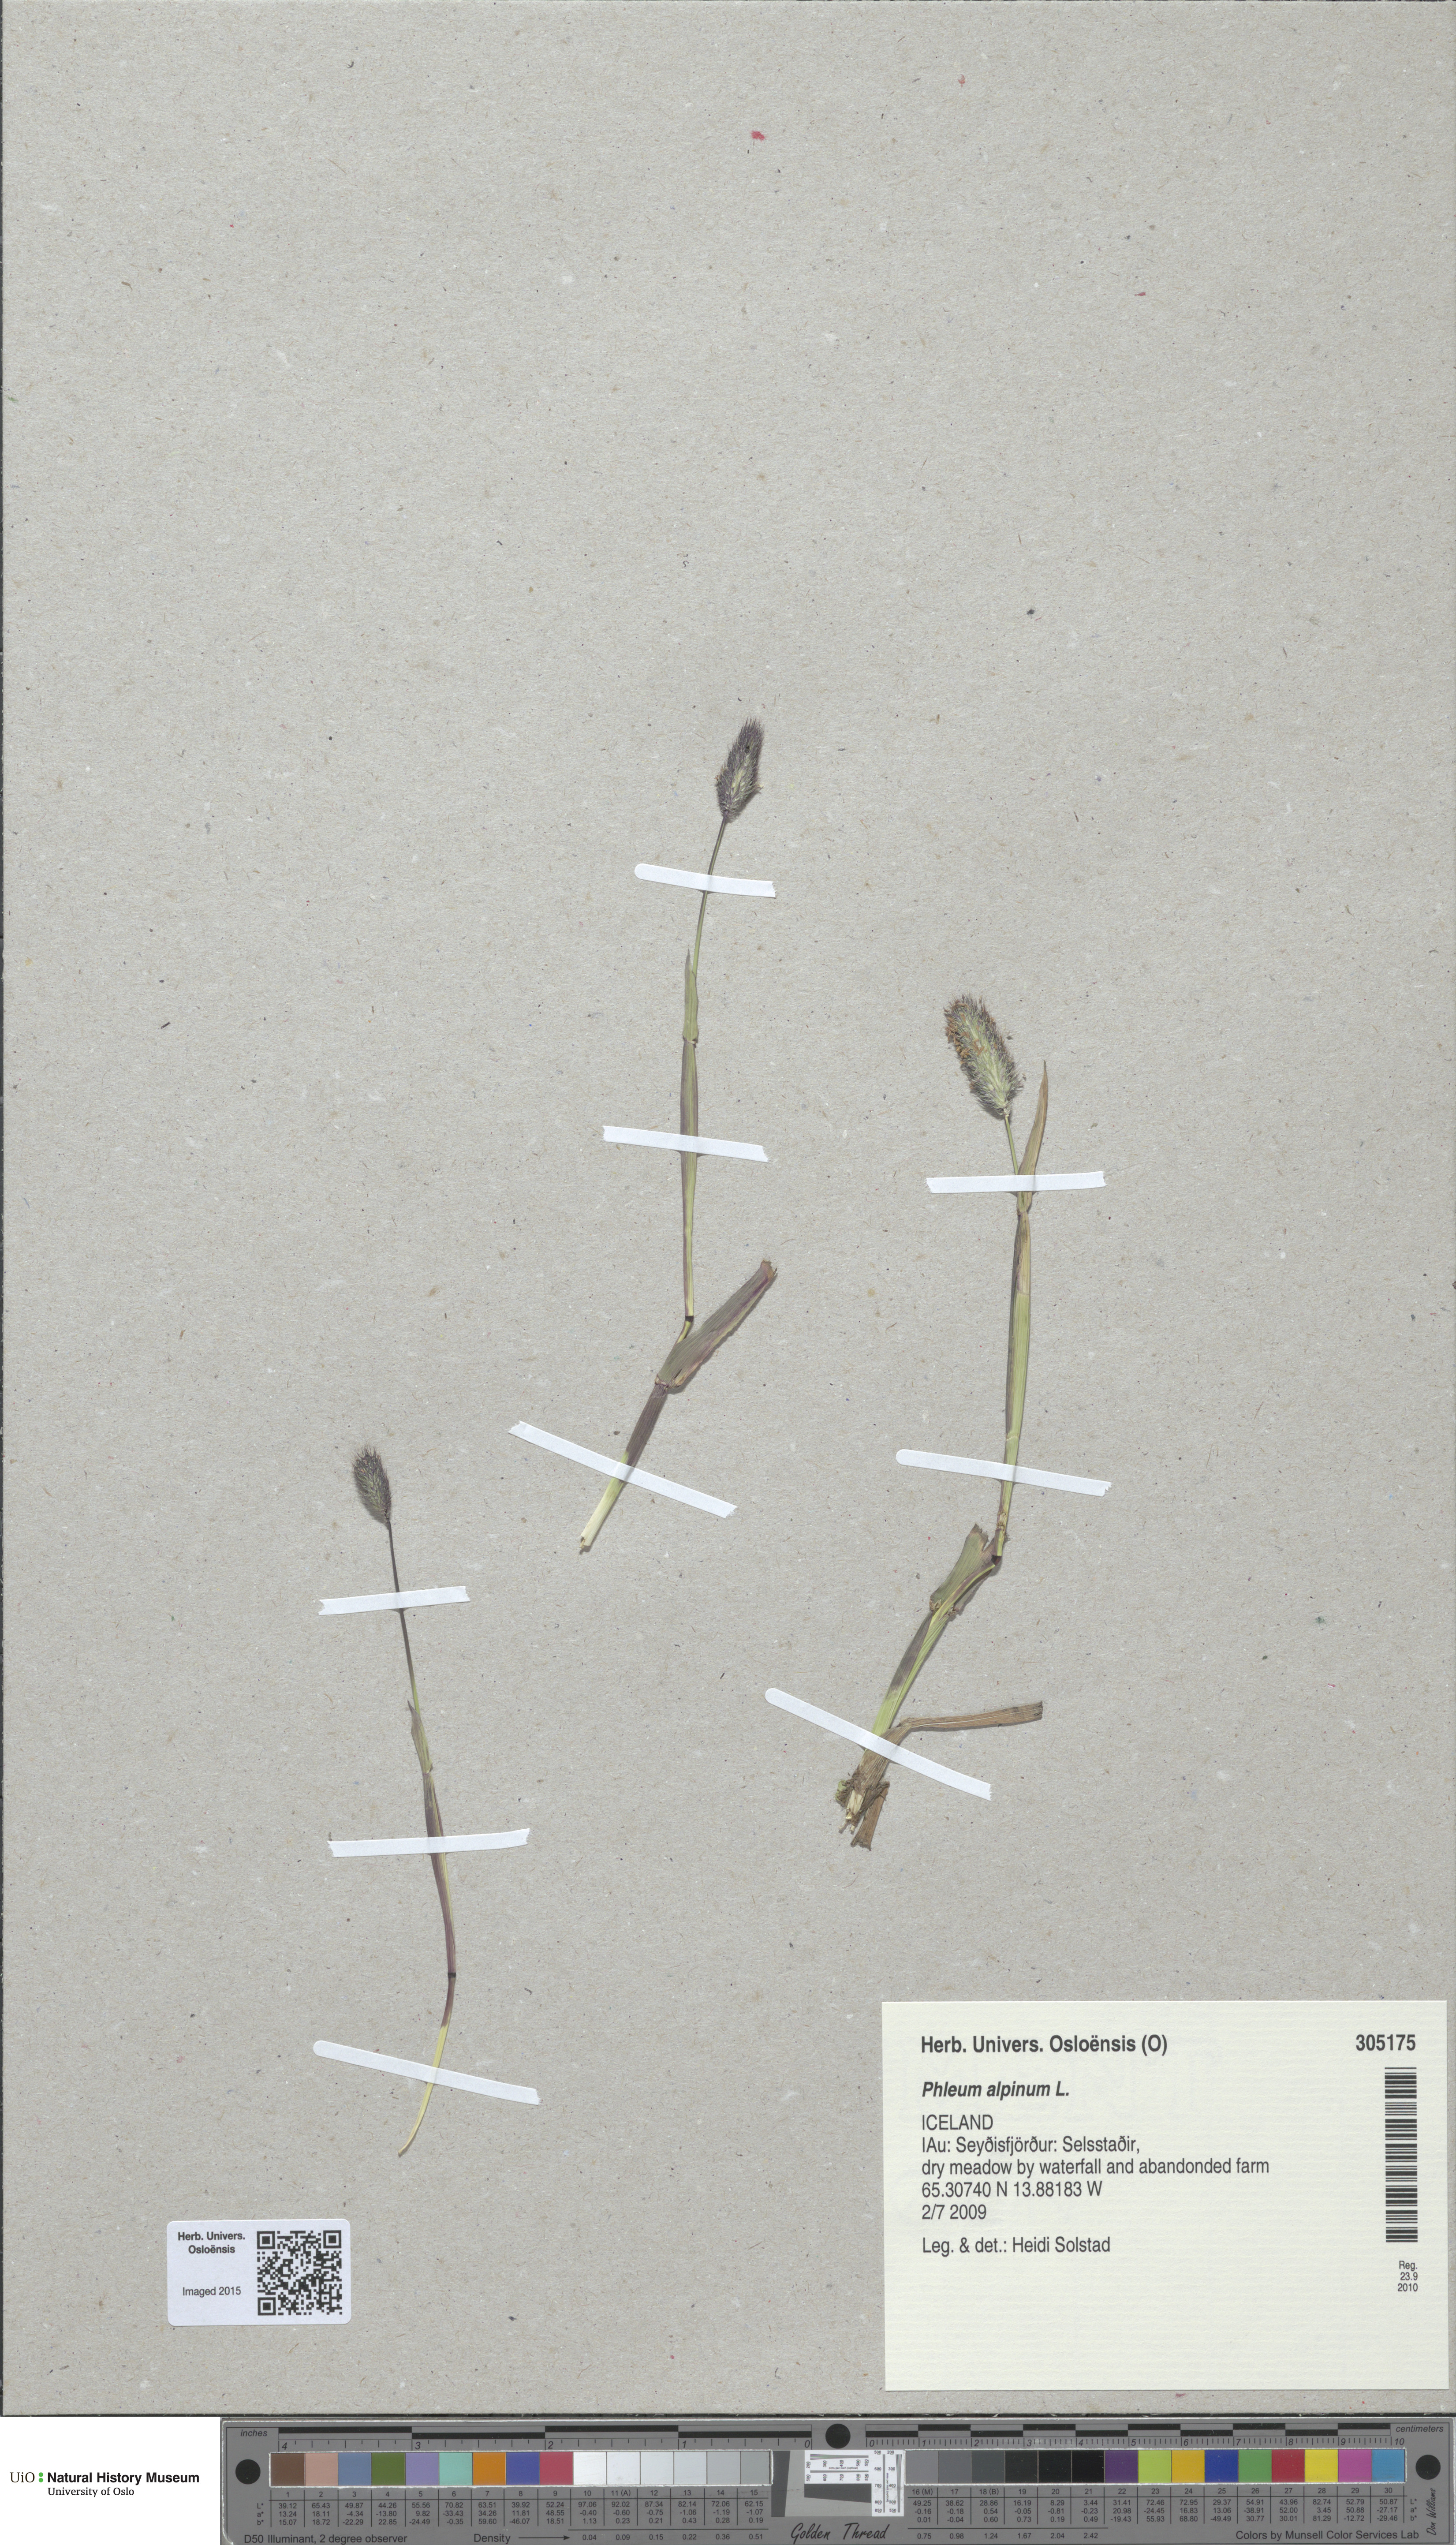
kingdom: Plantae
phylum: Tracheophyta
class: Liliopsida
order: Poales
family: Poaceae
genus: Phleum
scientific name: Phleum alpinum
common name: Alpine cat's-tail
